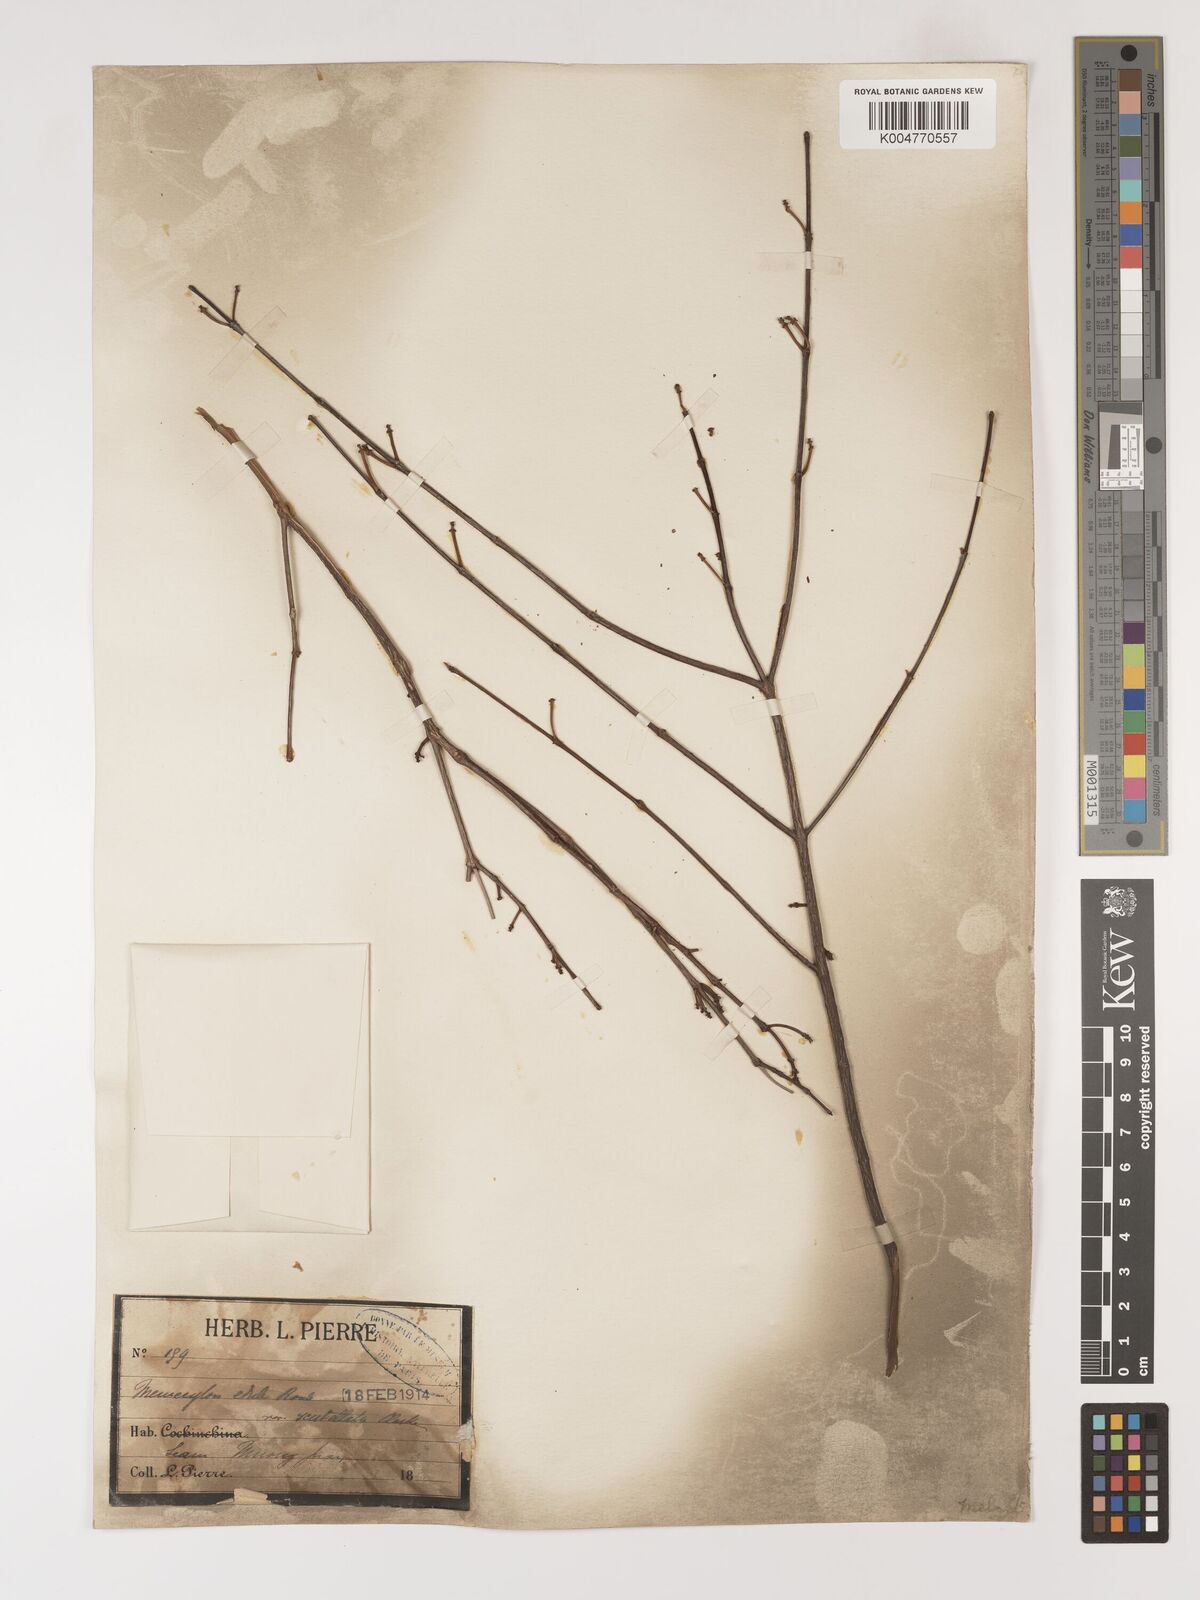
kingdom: Plantae
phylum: Tracheophyta
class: Magnoliopsida
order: Myrtales
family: Melastomataceae
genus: Memecylon
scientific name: Memecylon scutellatum
